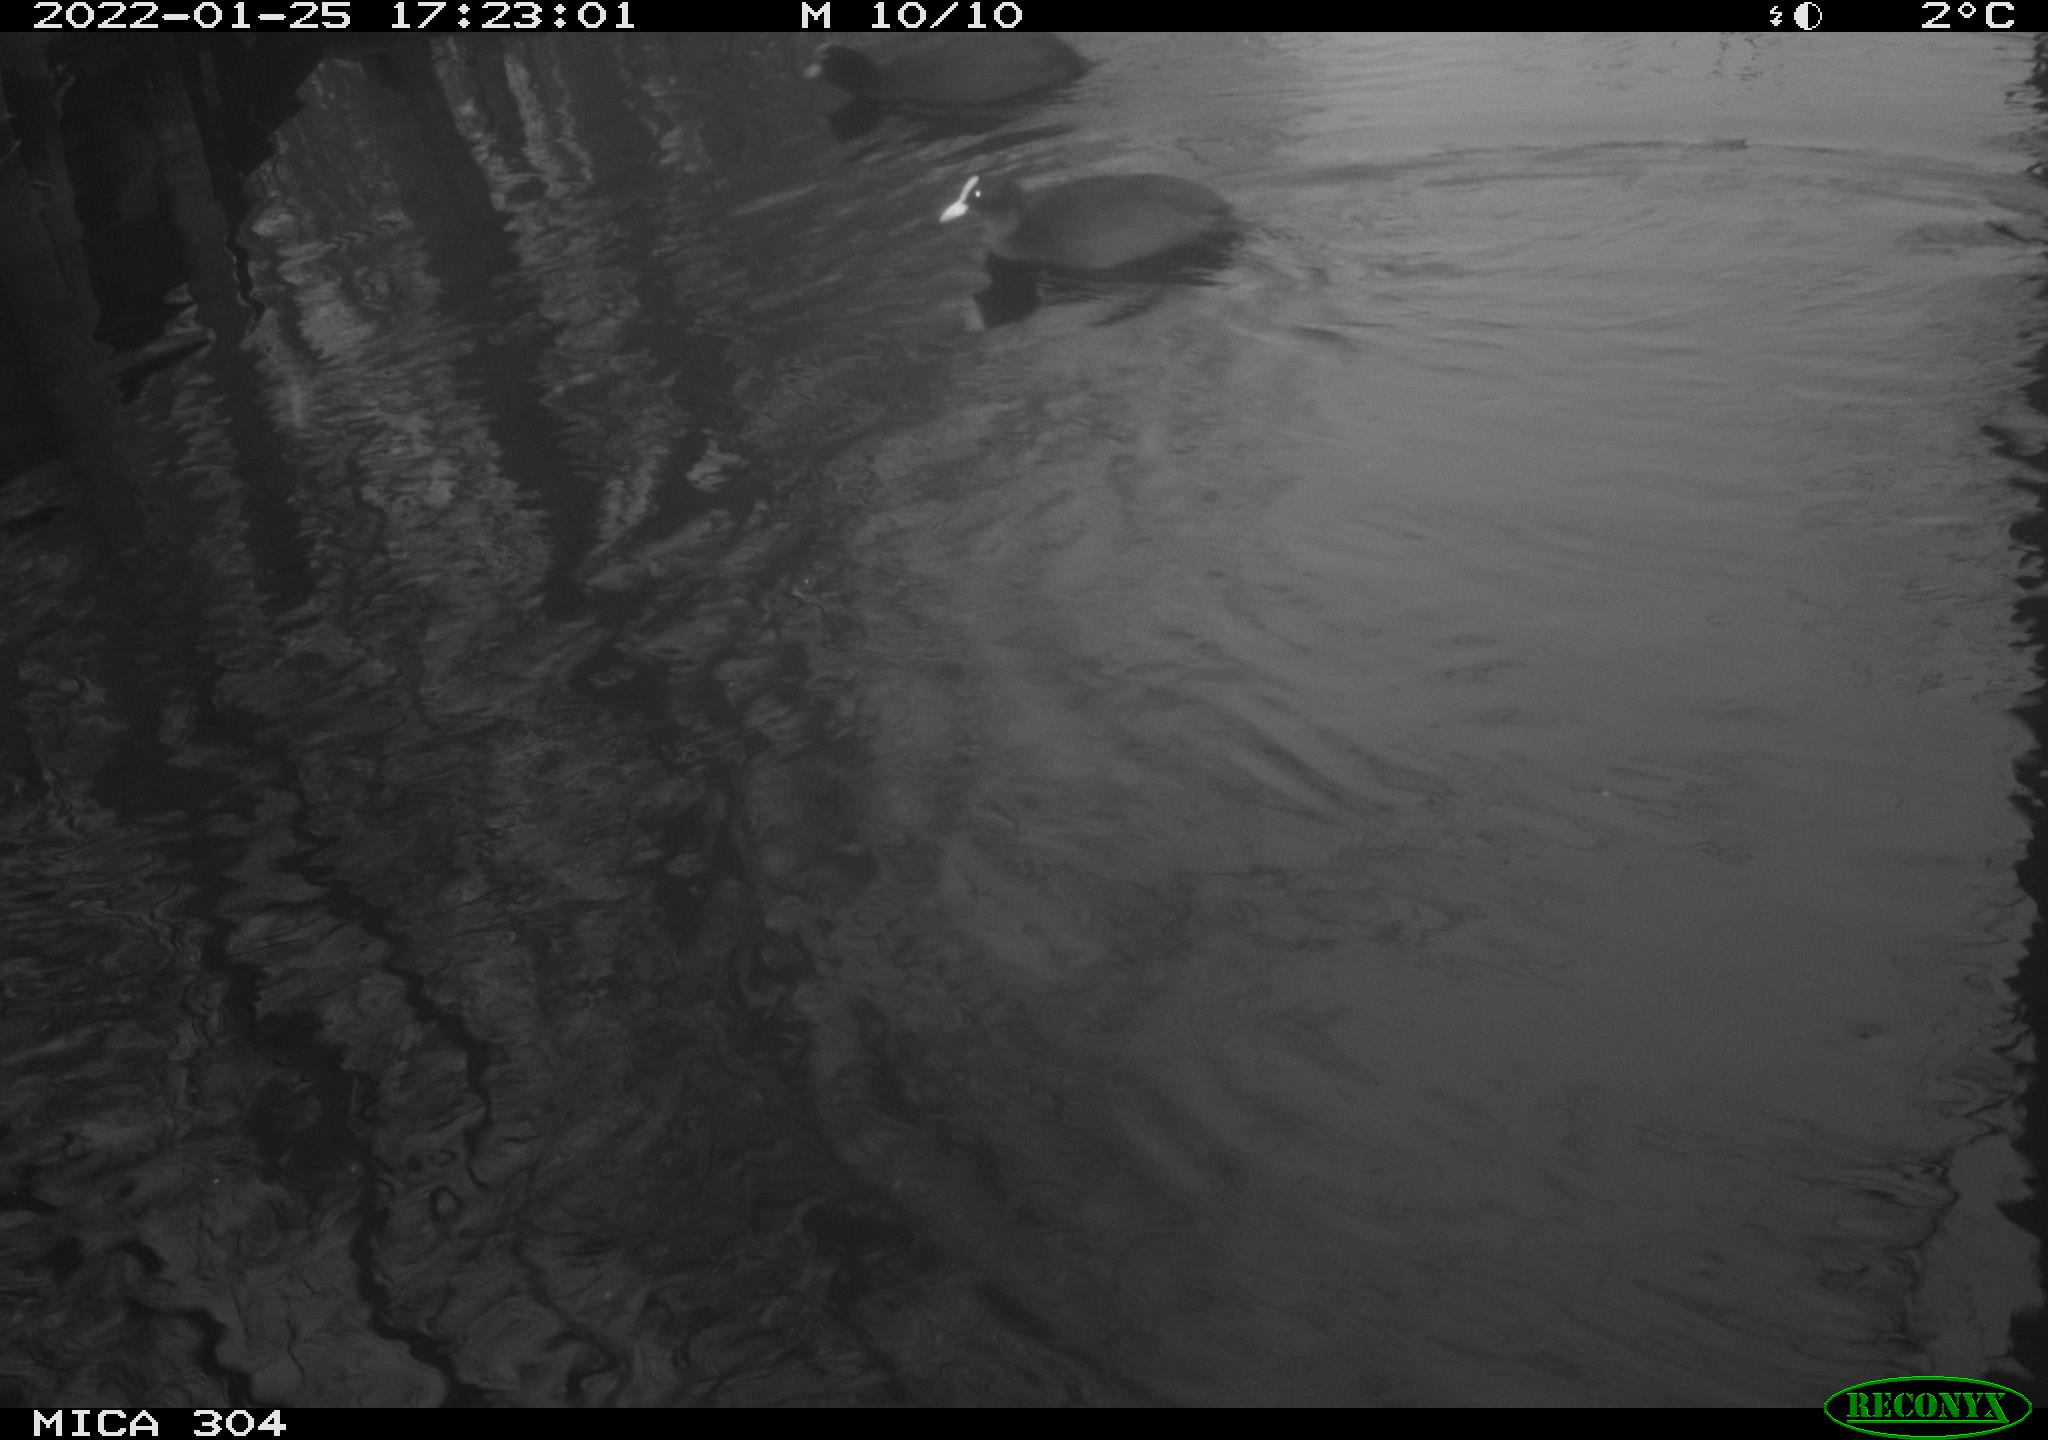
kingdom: Animalia
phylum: Chordata
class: Aves
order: Gruiformes
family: Rallidae
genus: Fulica
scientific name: Fulica atra
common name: Eurasian coot
